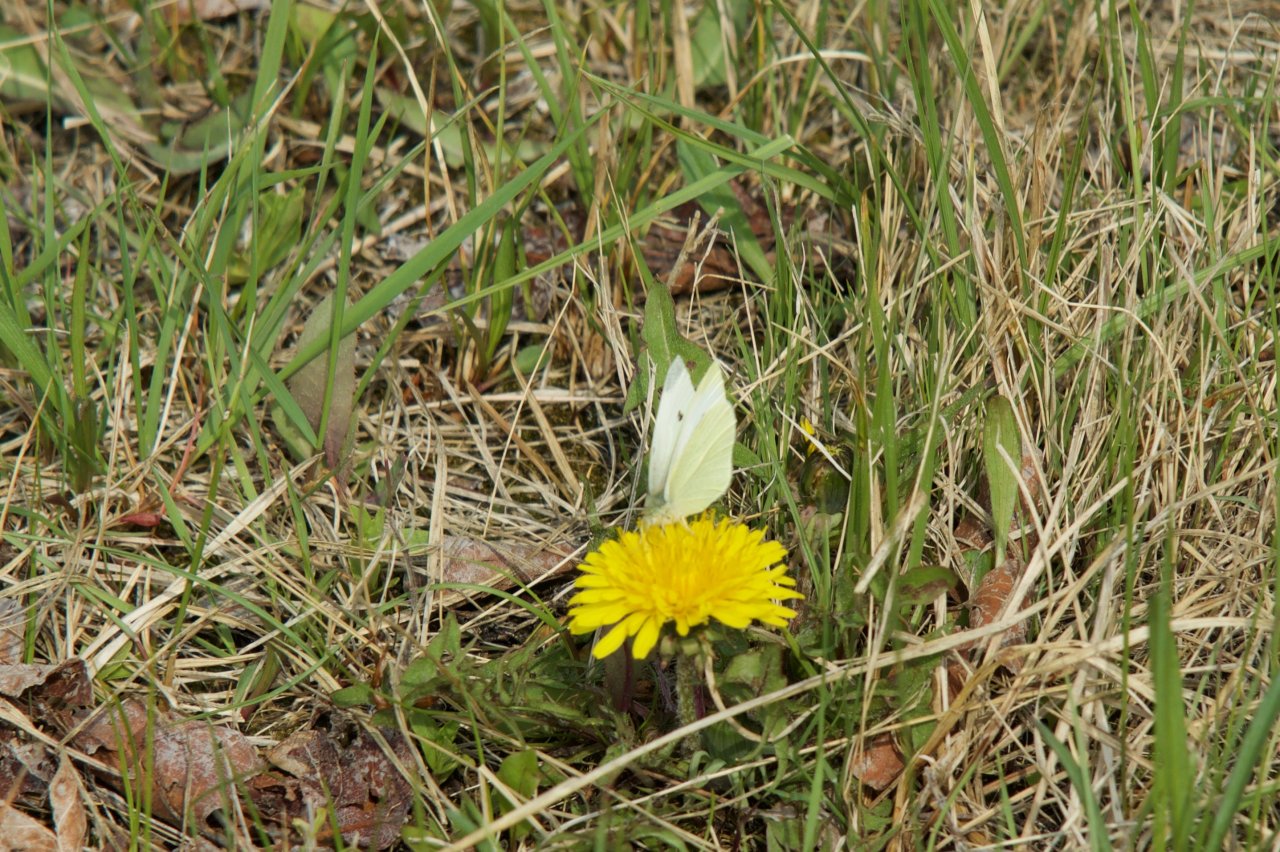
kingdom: Animalia
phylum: Arthropoda
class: Insecta
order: Lepidoptera
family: Pieridae
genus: Pieris
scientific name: Pieris rapae
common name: Cabbage White
